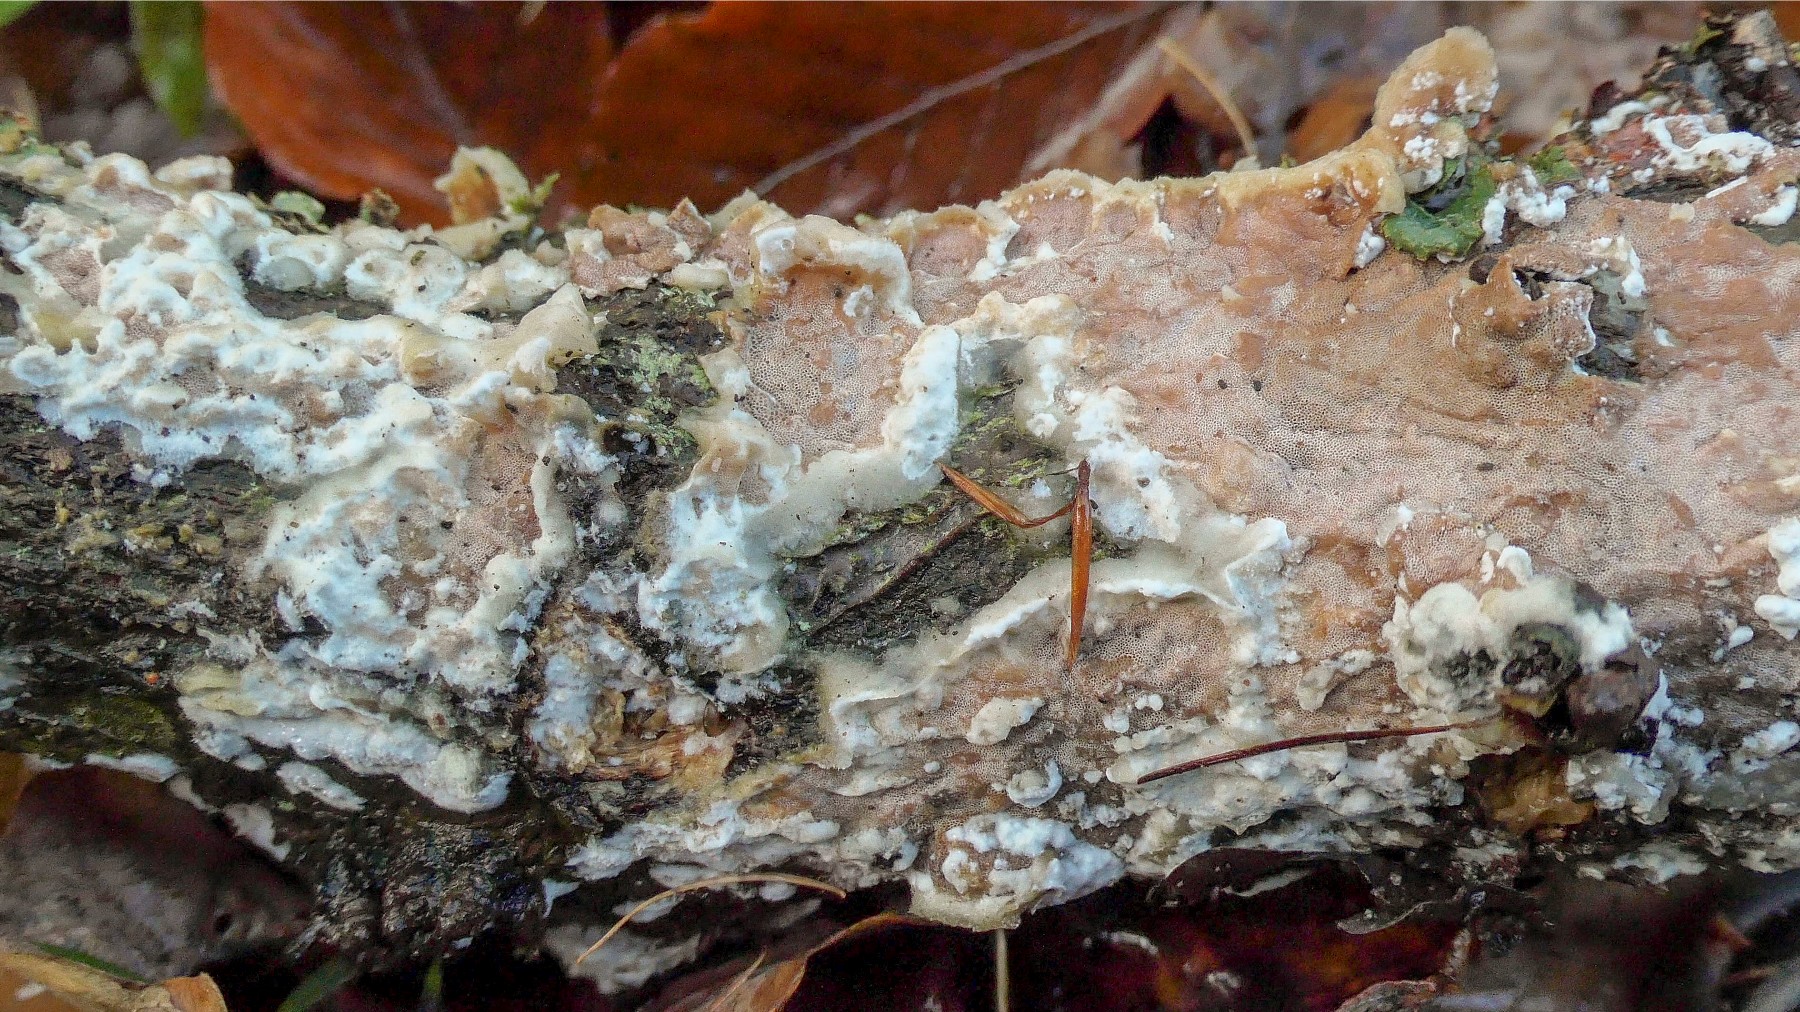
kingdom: Fungi
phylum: Basidiomycota
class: Agaricomycetes
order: Polyporales
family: Irpicaceae
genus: Vitreoporus
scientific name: Vitreoporus dichrous
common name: tofarvet foldporesvamp
